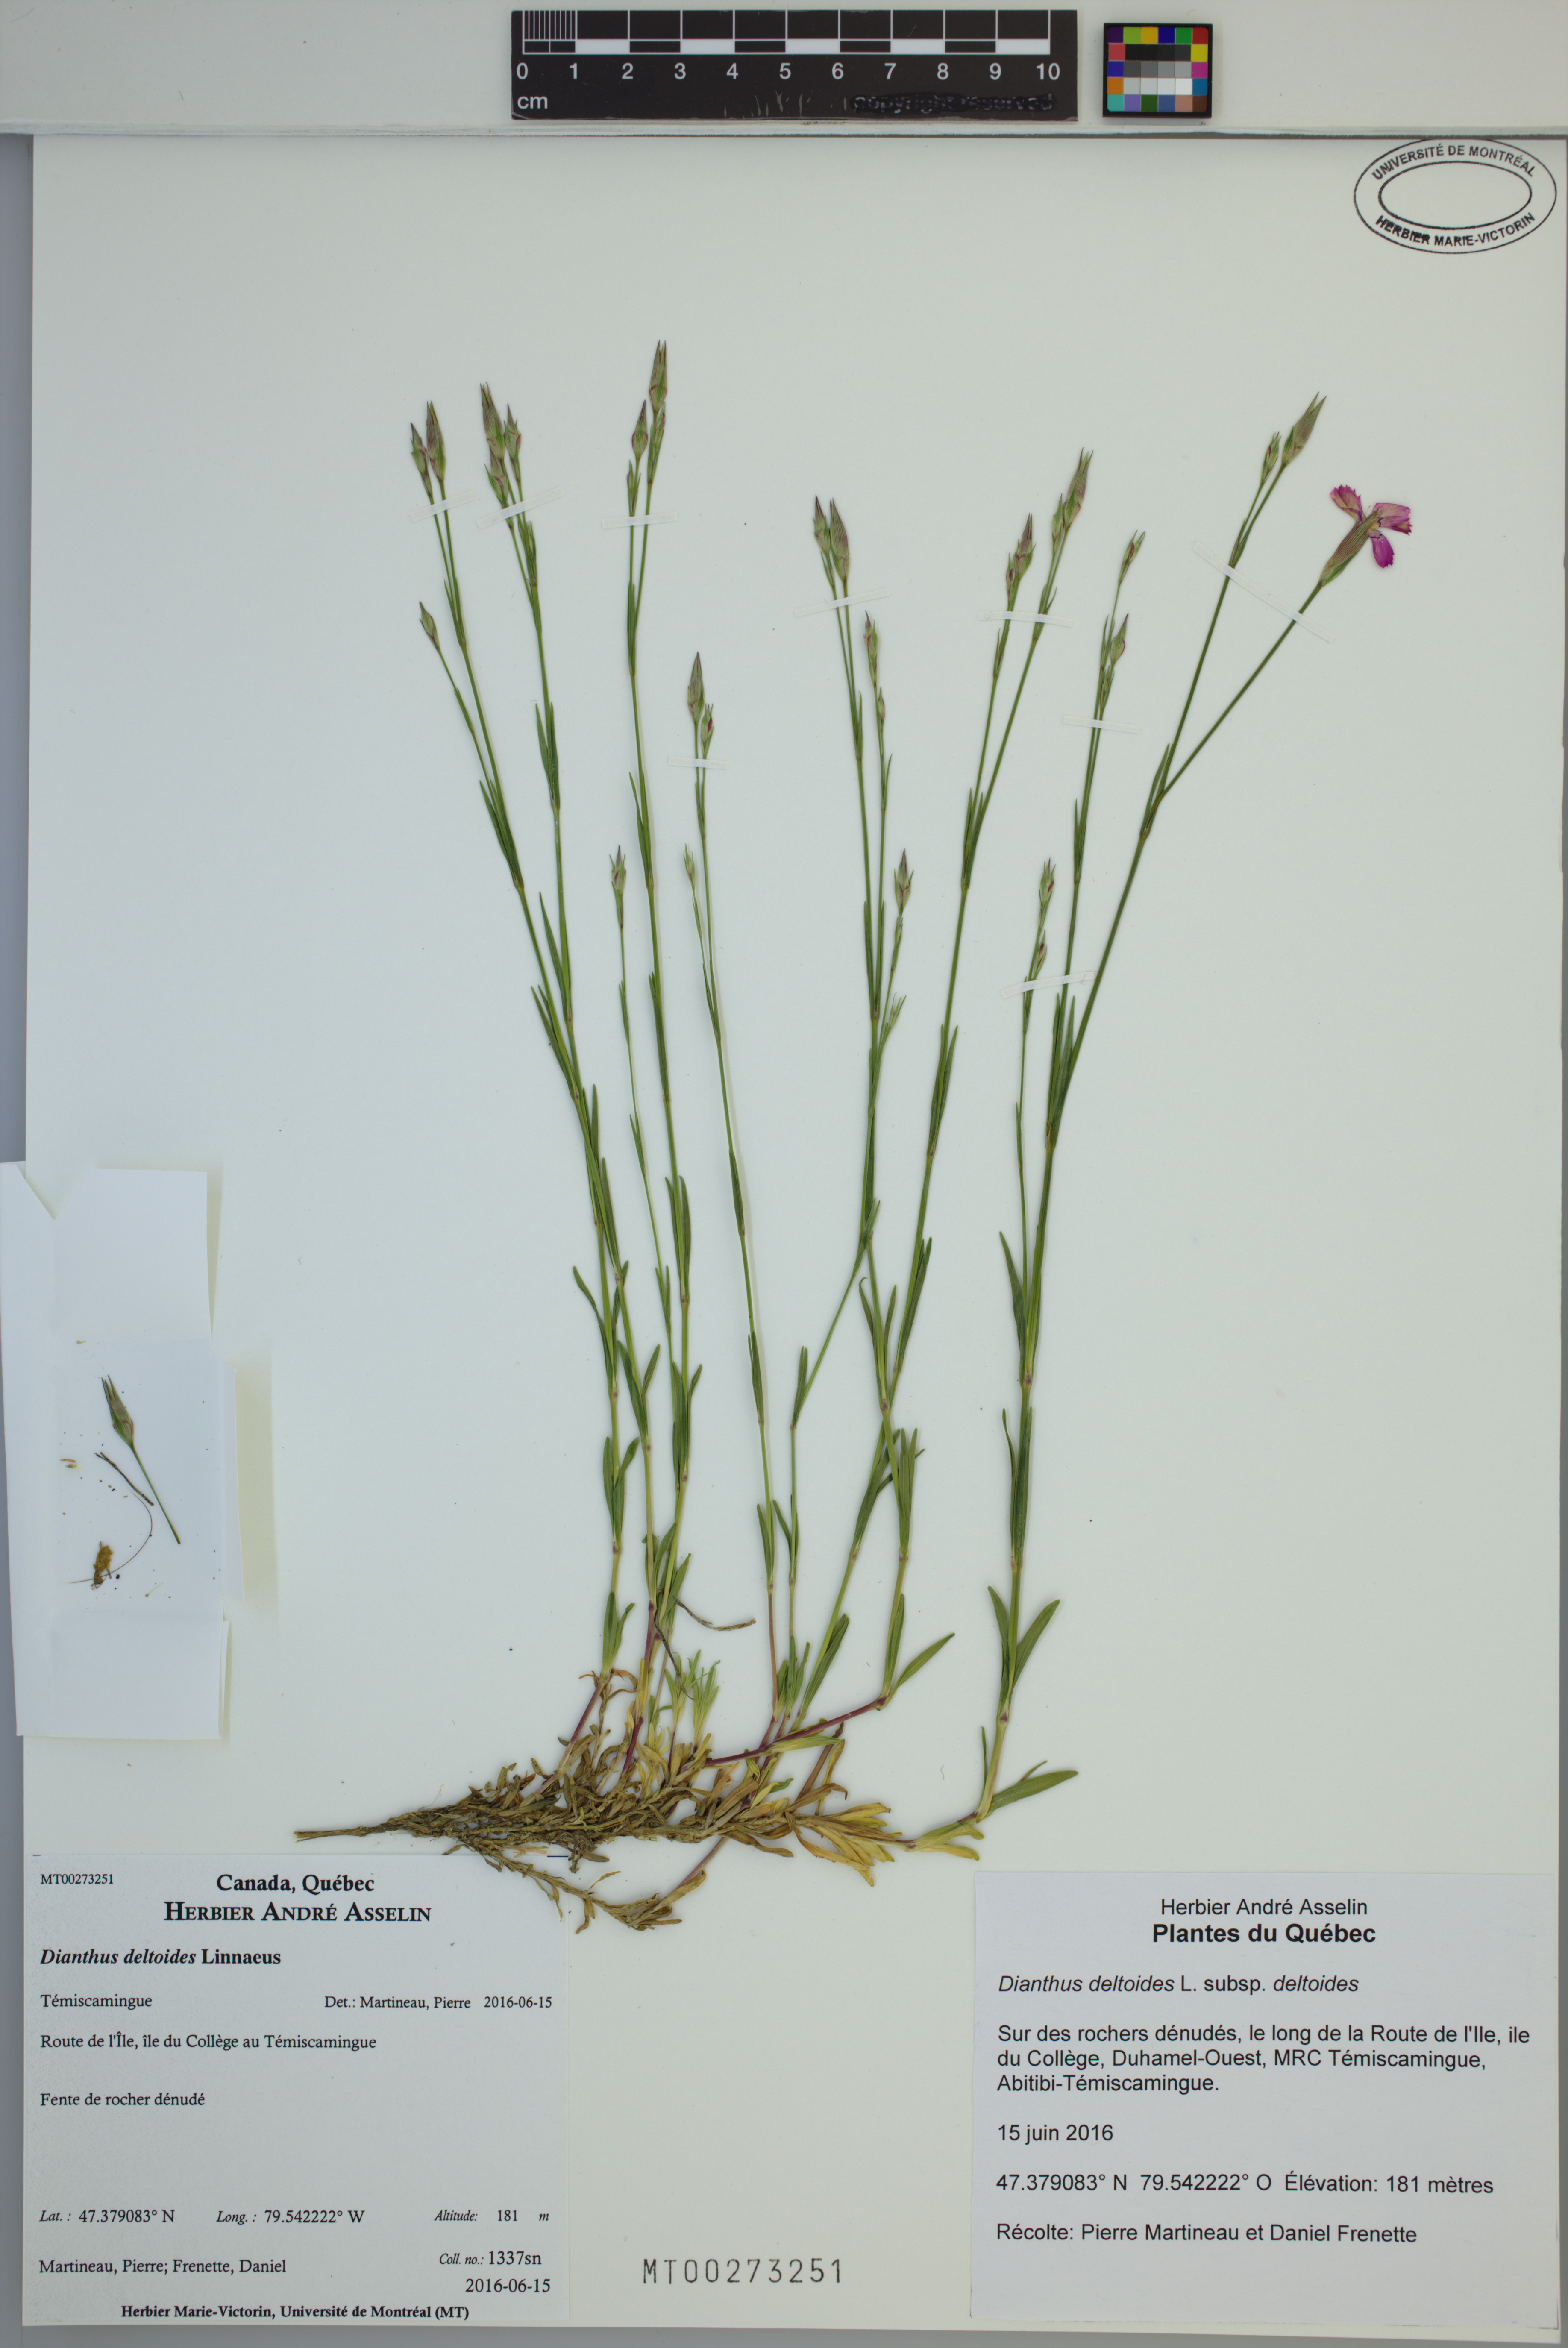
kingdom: Plantae
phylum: Tracheophyta
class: Magnoliopsida
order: Caryophyllales
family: Caryophyllaceae
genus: Dianthus
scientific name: Dianthus deltoides
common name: Maiden pink
